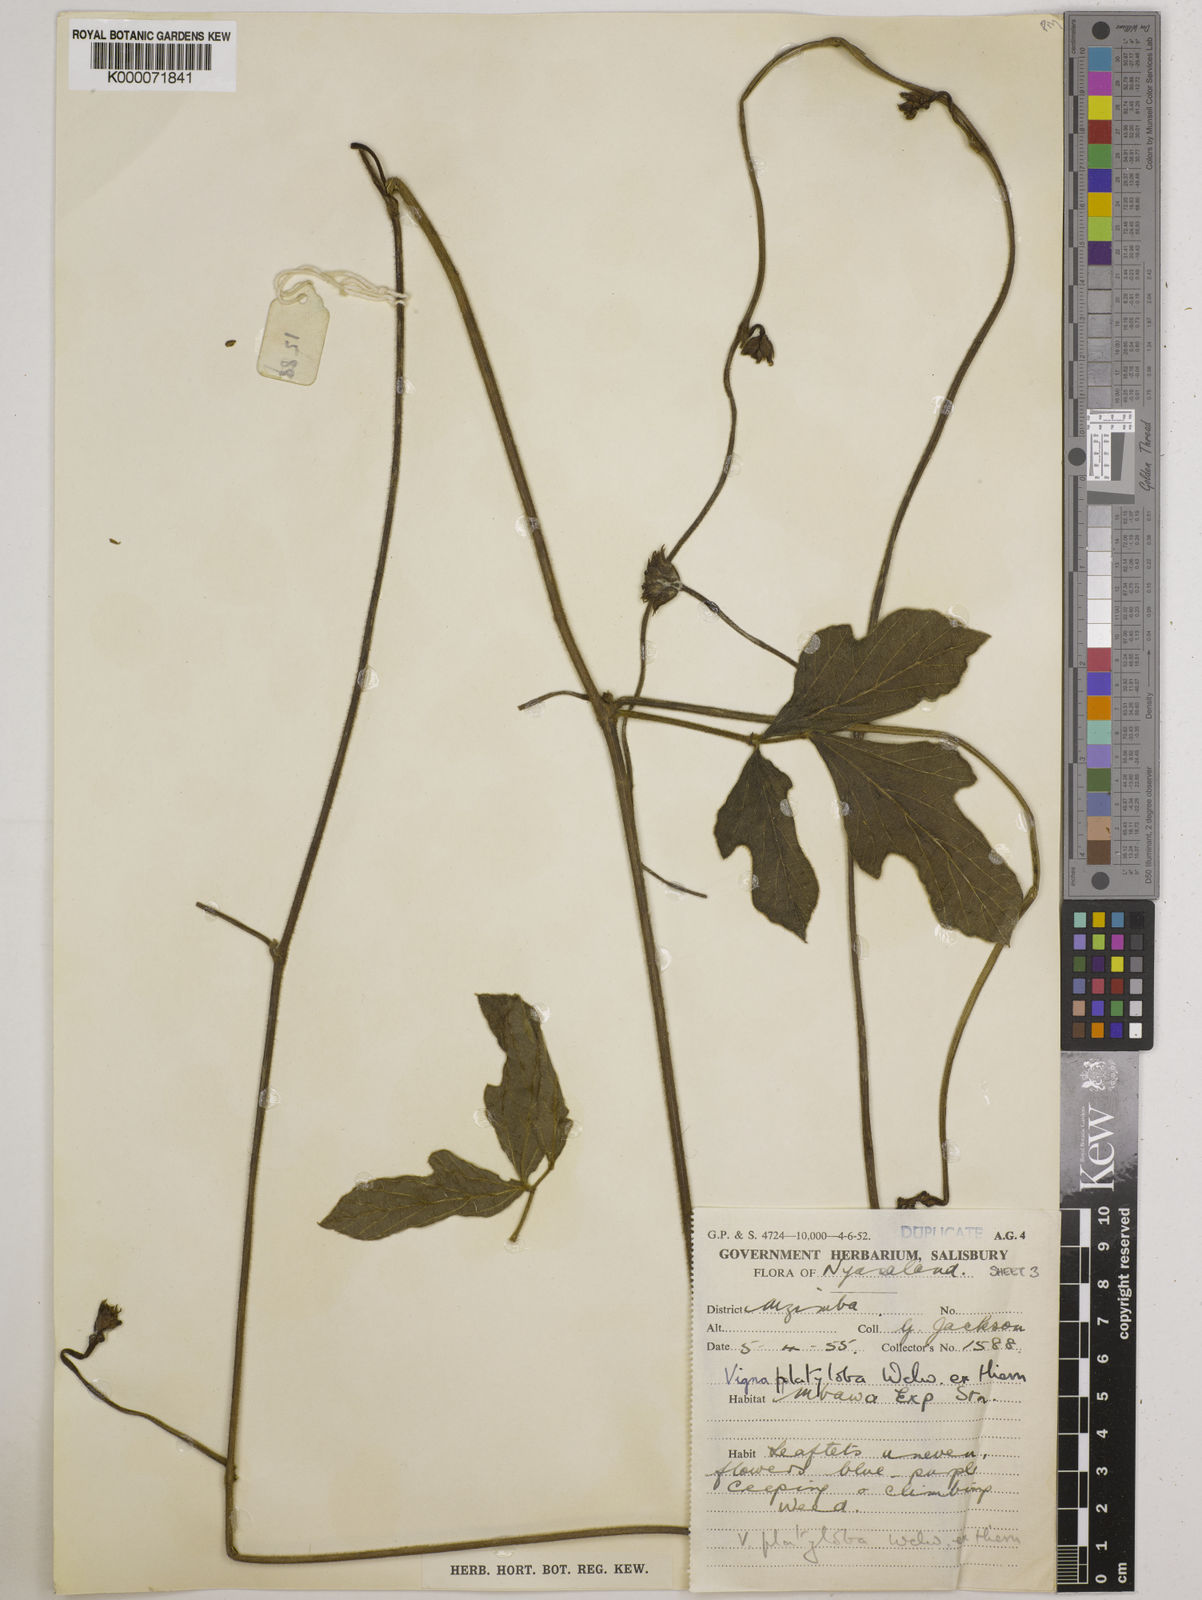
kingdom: Plantae
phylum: Tracheophyta
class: Magnoliopsida
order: Fabales
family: Fabaceae
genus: Vigna
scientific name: Vigna platyloba
